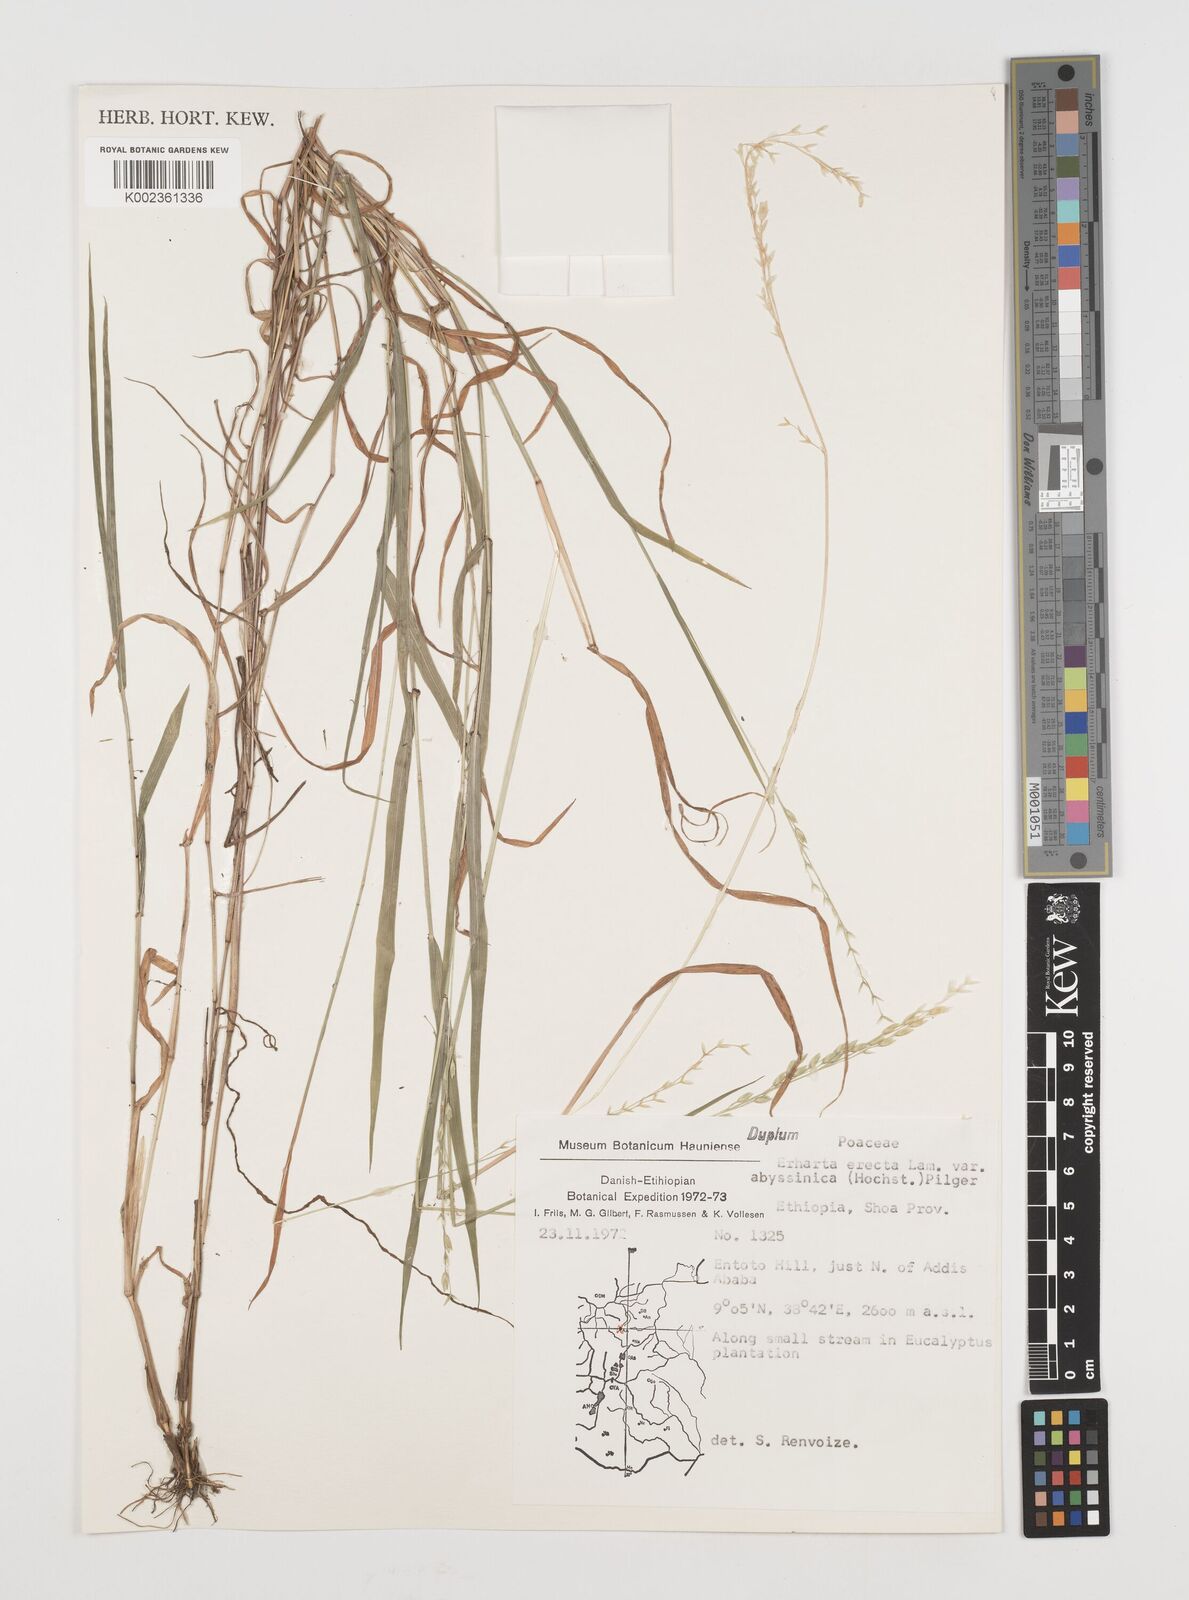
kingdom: Plantae
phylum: Tracheophyta
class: Liliopsida
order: Poales
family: Poaceae
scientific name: Poaceae
